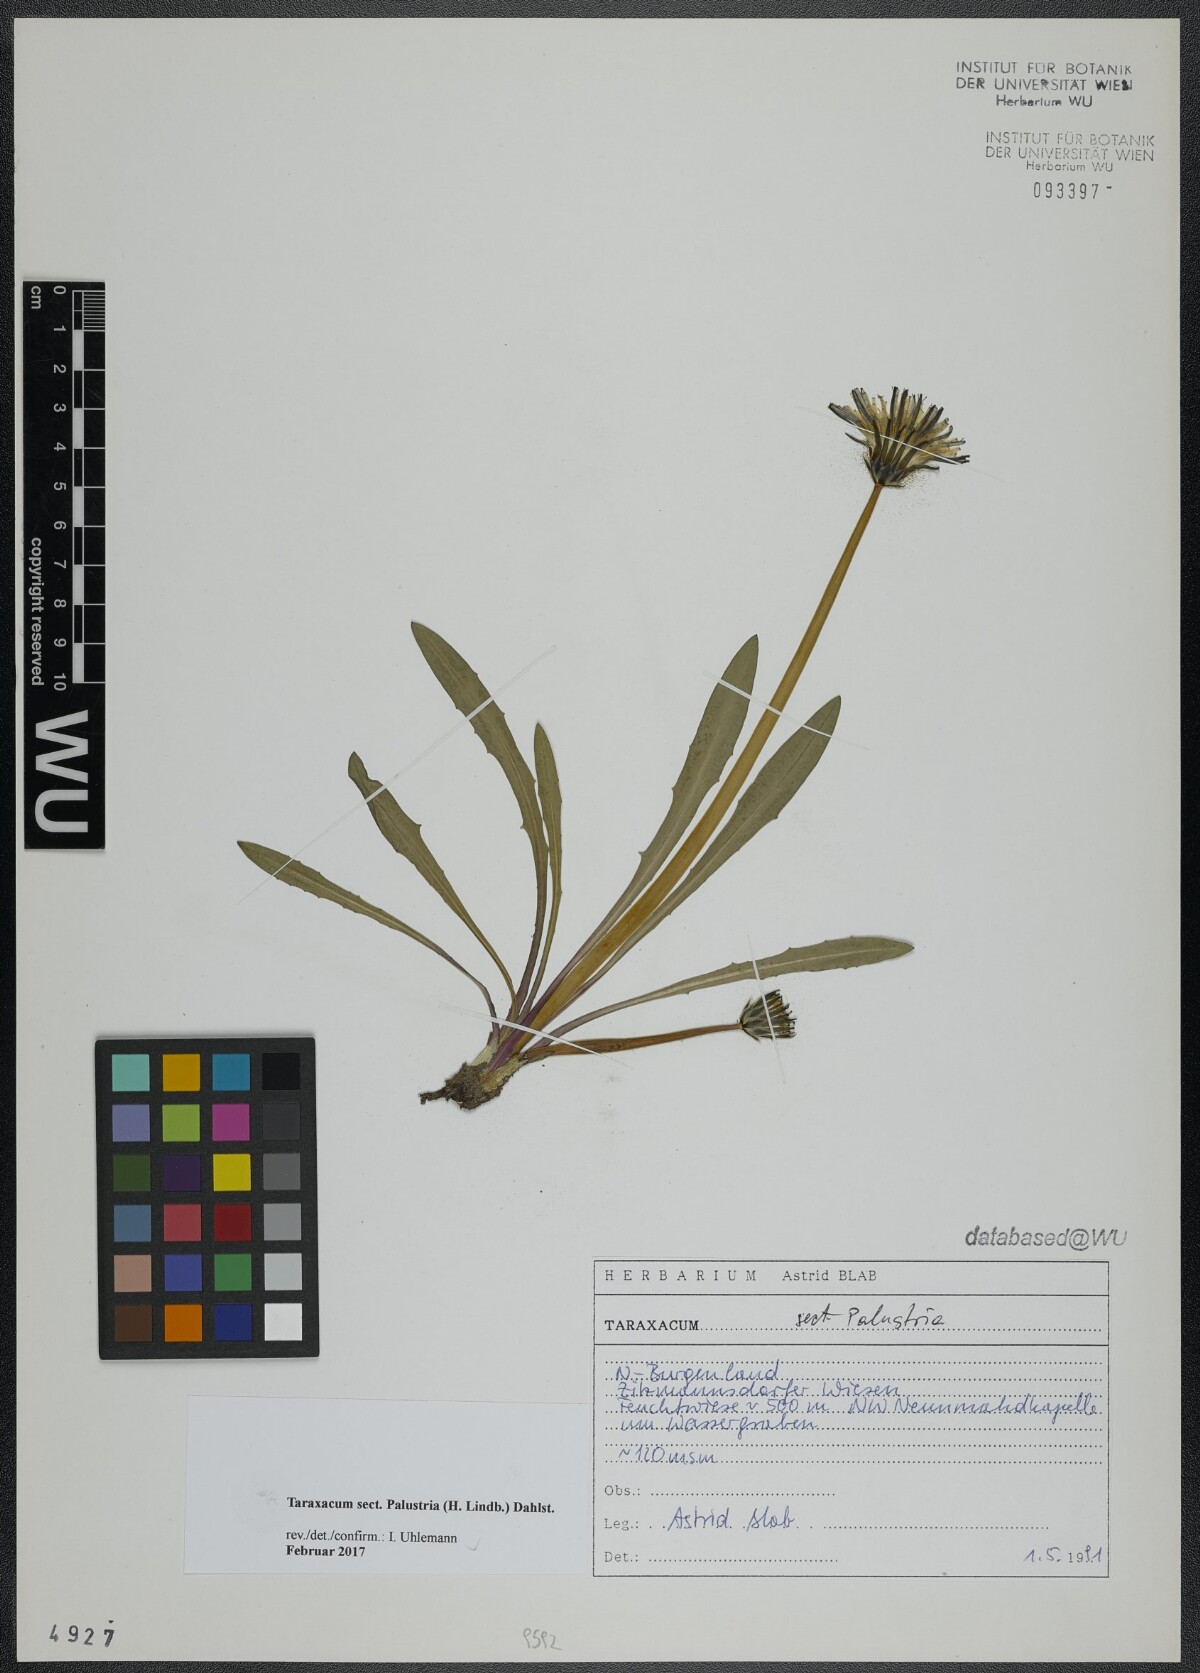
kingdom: Plantae
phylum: Tracheophyta
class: Magnoliopsida
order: Asterales
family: Asteraceae
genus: Taraxacum
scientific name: Taraxacum
